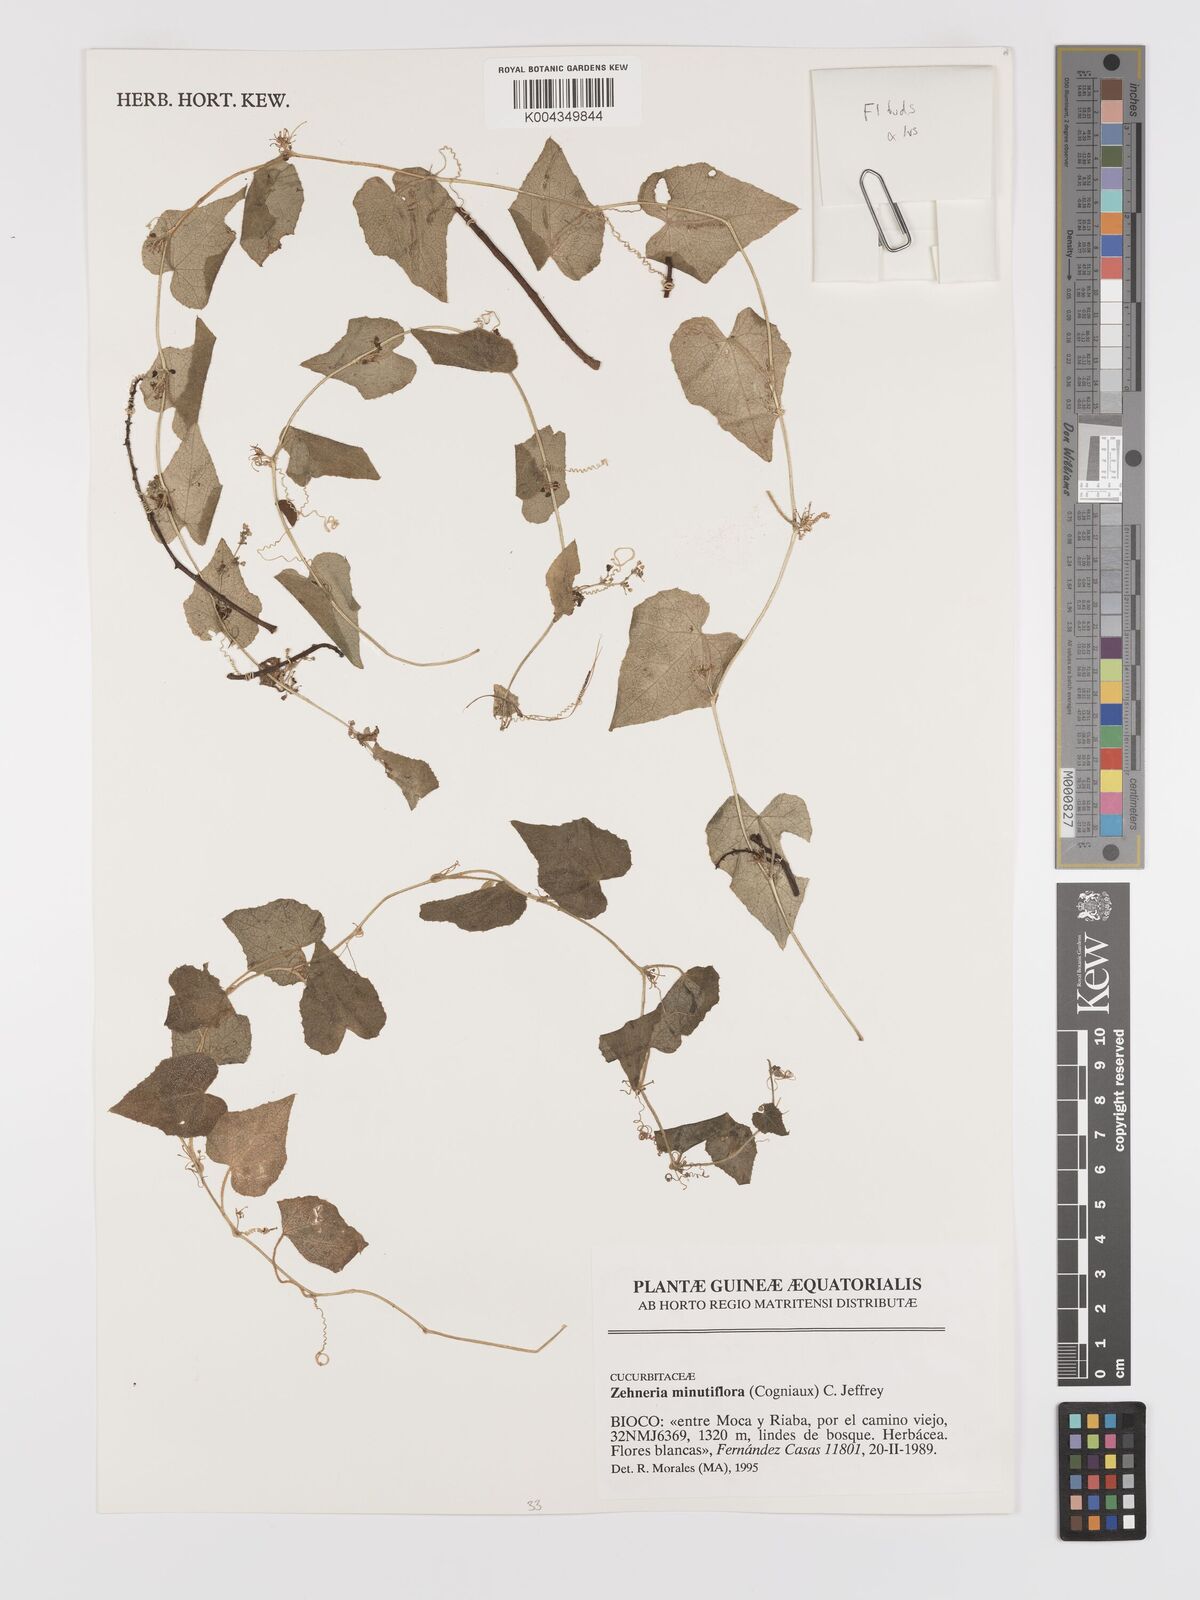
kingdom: Plantae
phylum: Tracheophyta
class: Magnoliopsida
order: Cucurbitales
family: Cucurbitaceae
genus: Zehneria
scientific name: Zehneria minutiflora
